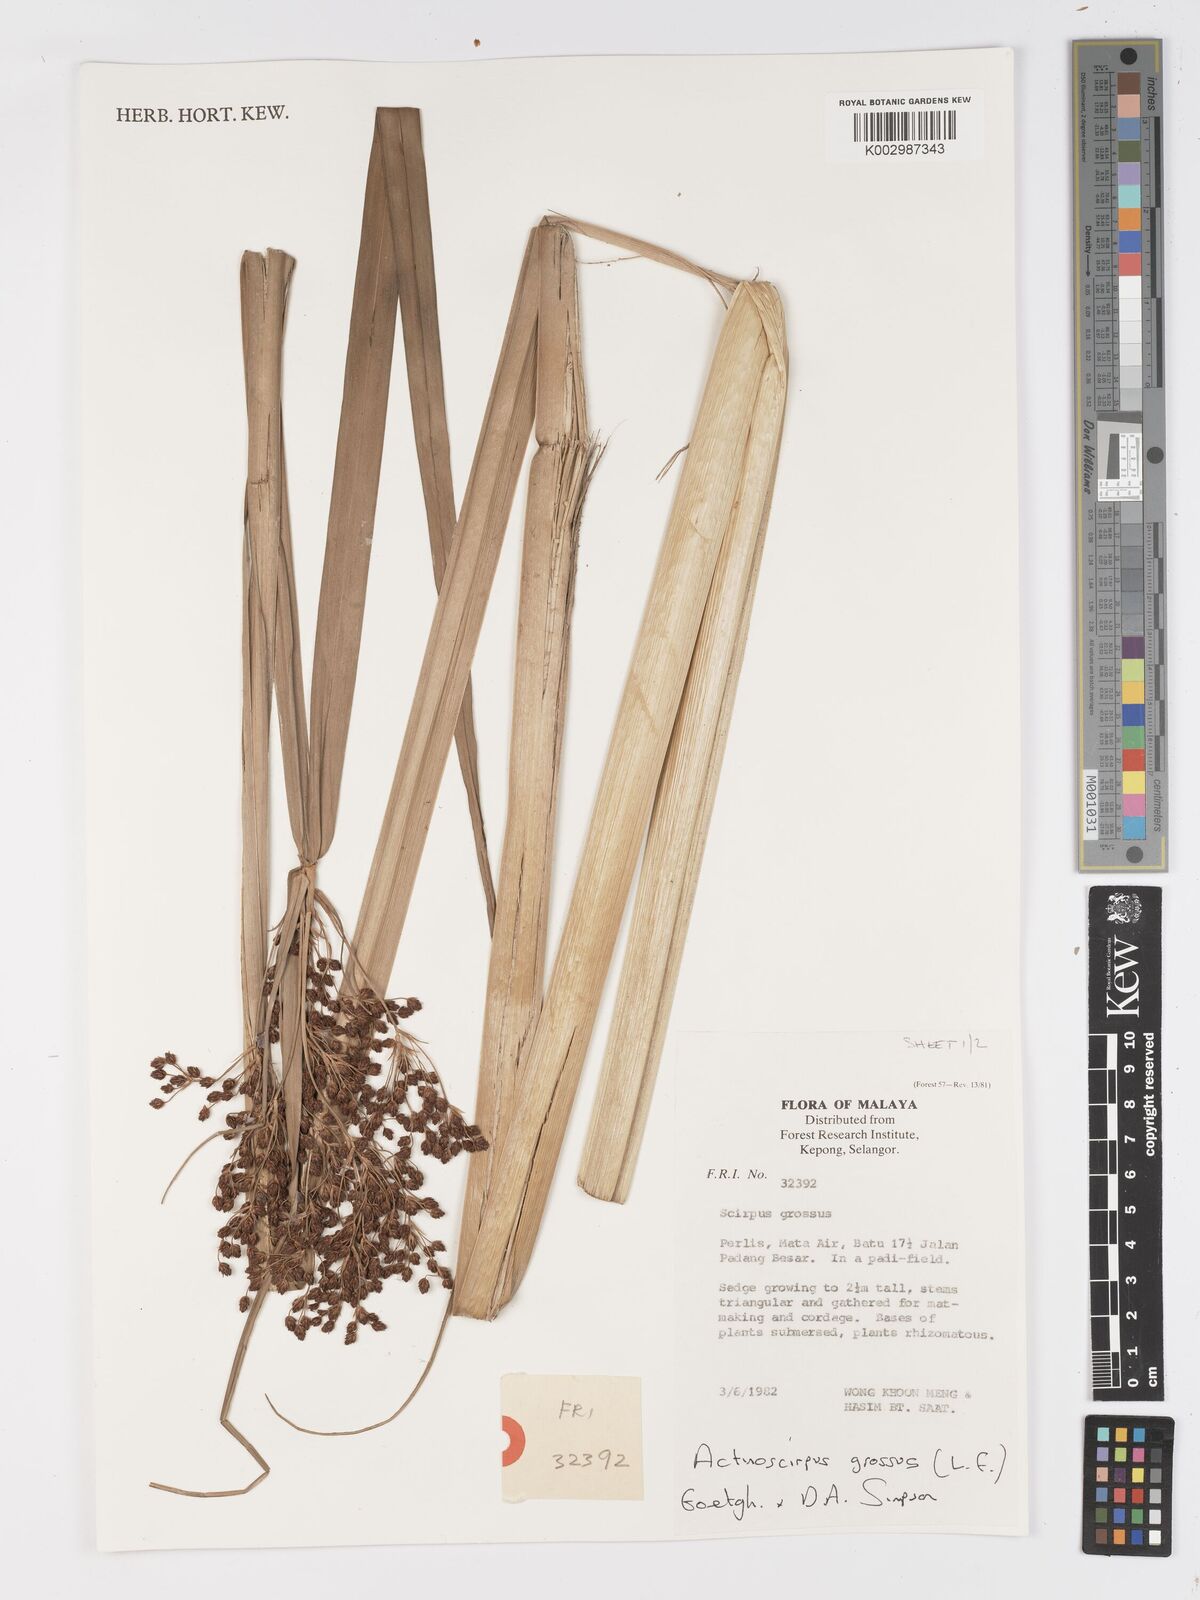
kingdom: Plantae
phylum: Tracheophyta
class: Liliopsida
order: Poales
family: Cyperaceae
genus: Actinoscirpus
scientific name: Actinoscirpus grossus
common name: Giant bur rush
